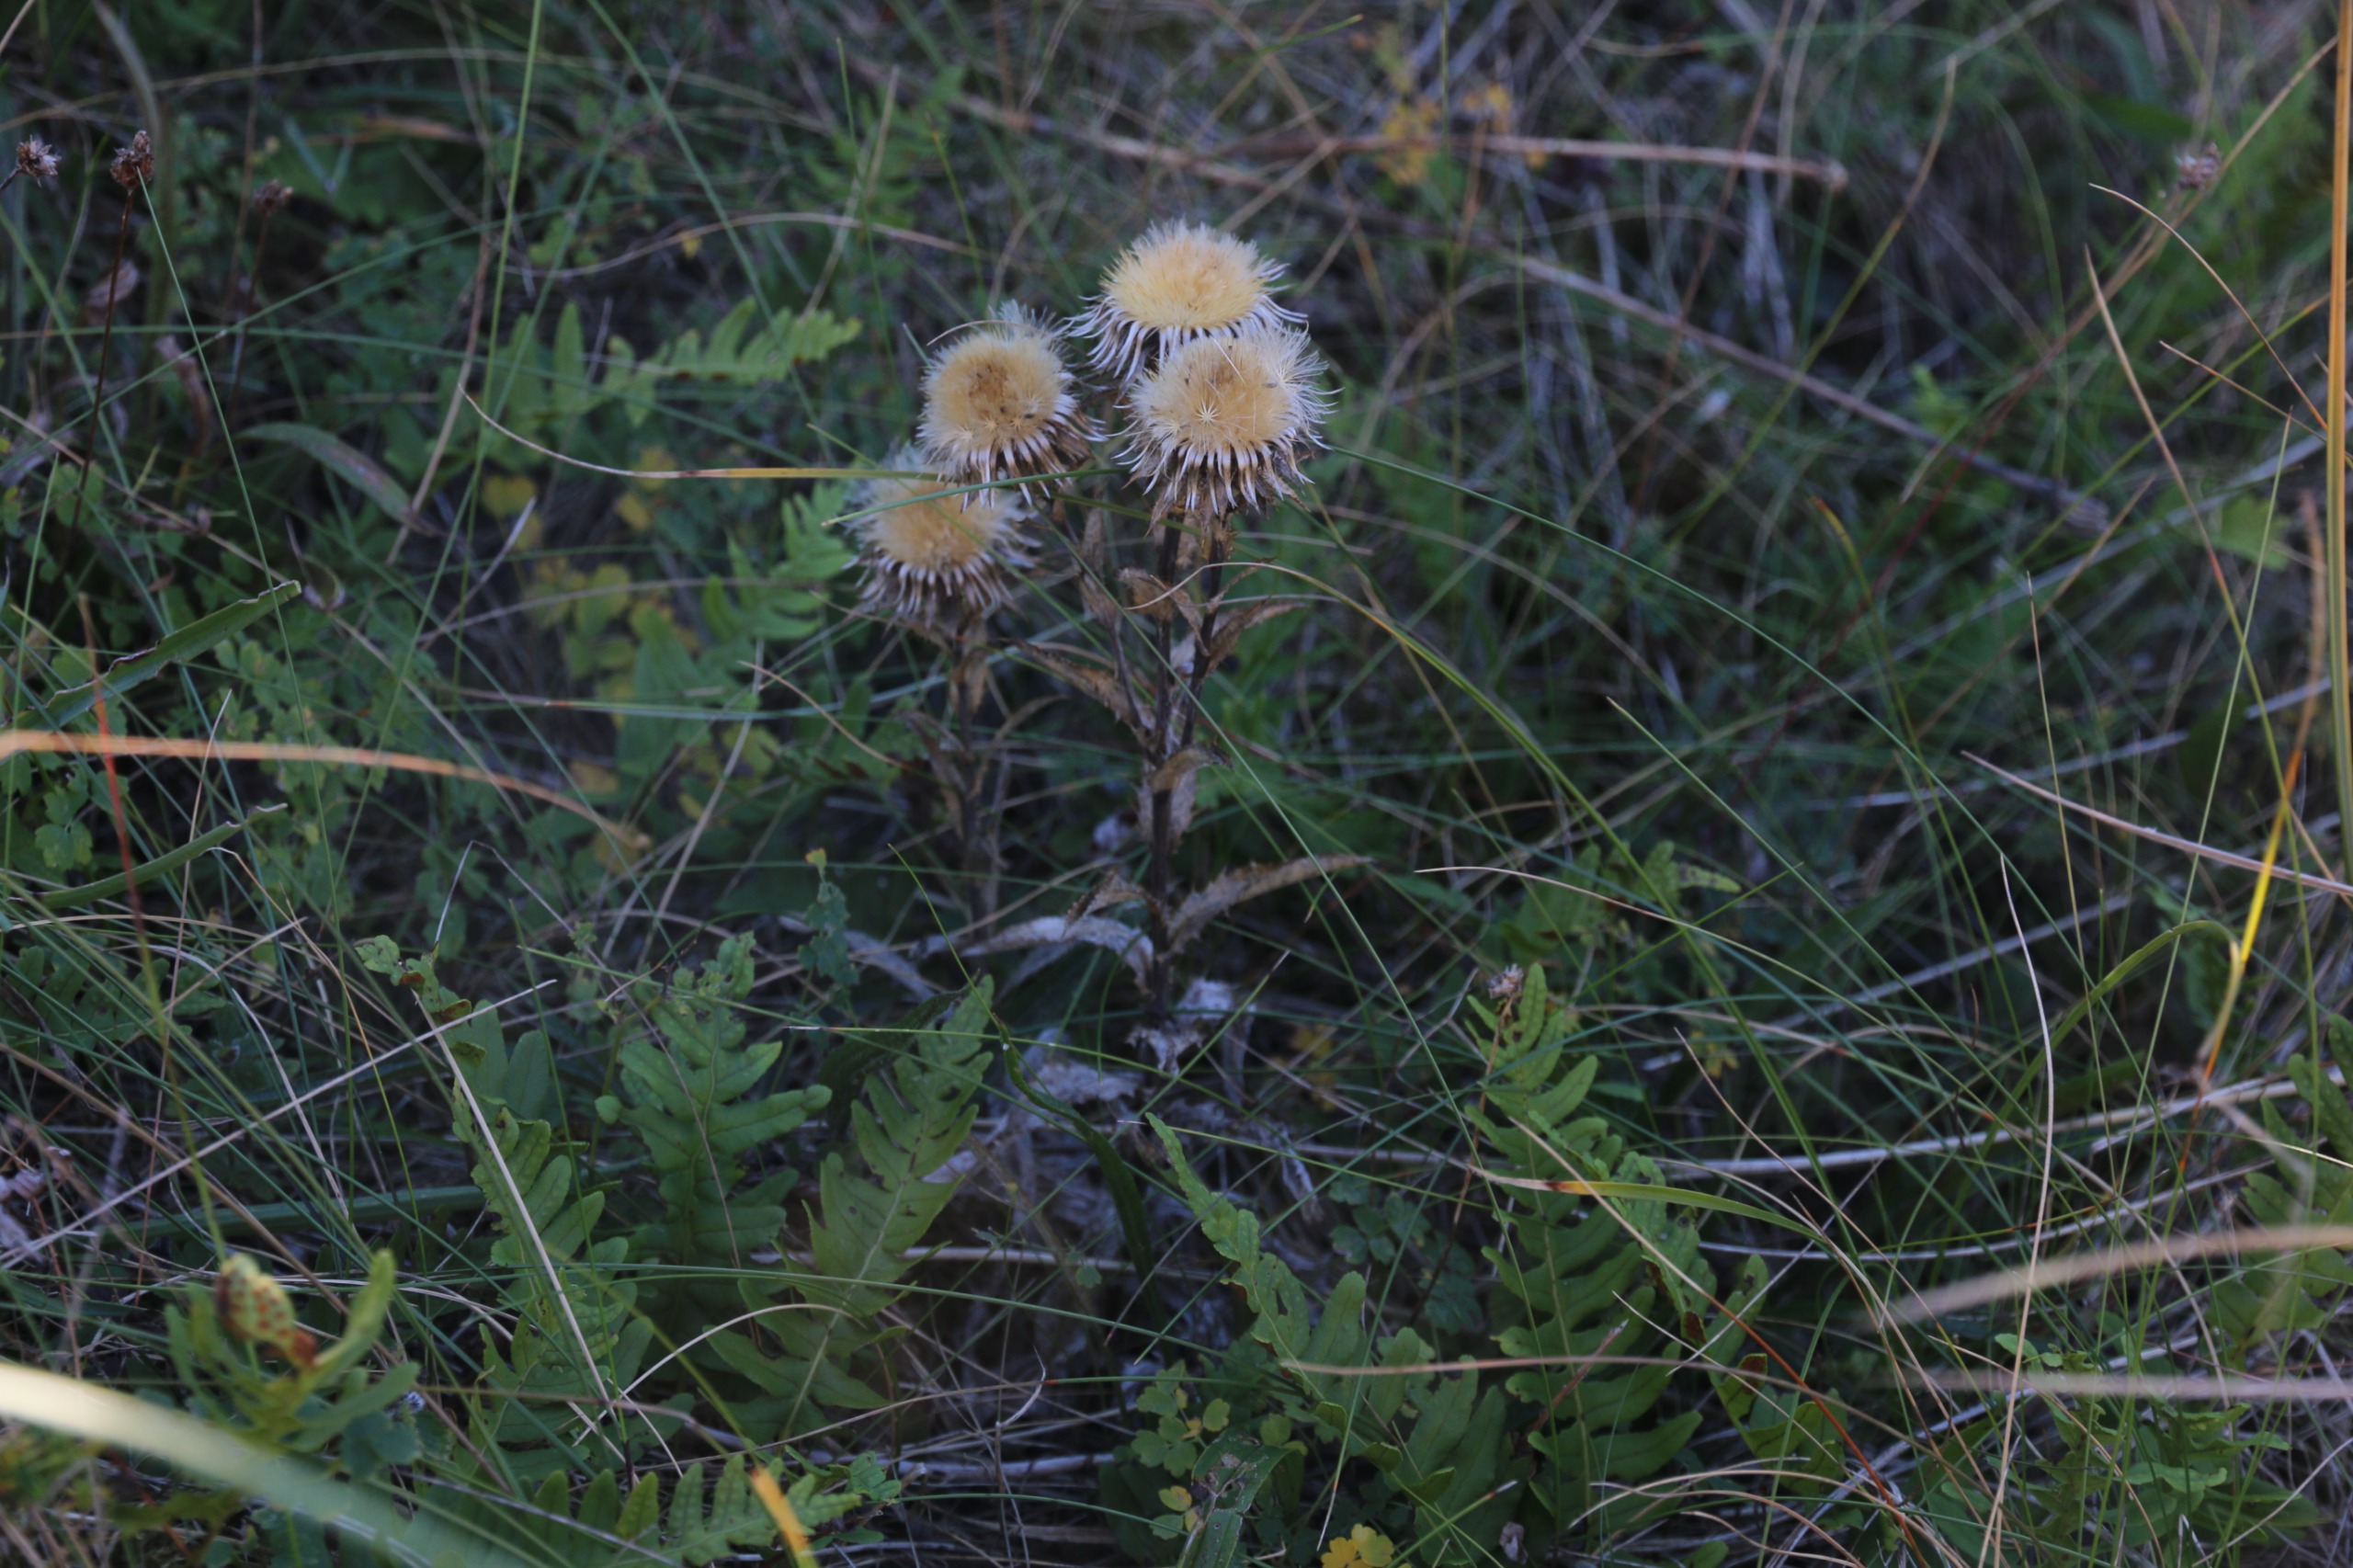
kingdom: Plantae
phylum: Tracheophyta
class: Magnoliopsida
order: Asterales
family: Asteraceae
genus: Carlina
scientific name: Carlina vulgaris
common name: Bakketidsel
